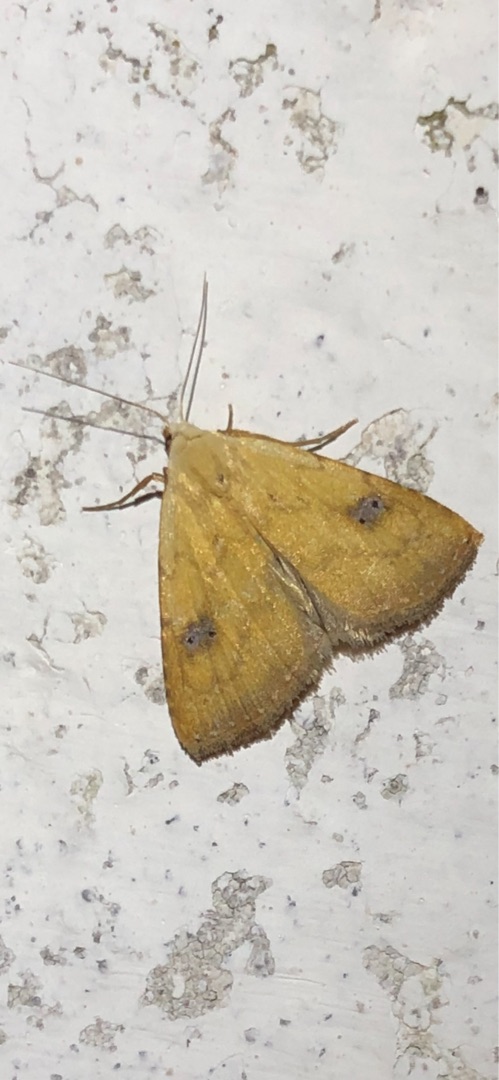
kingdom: Animalia
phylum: Arthropoda
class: Insecta
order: Lepidoptera
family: Erebidae
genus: Rivula
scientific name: Rivula sericealis
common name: Lille å-ugle
